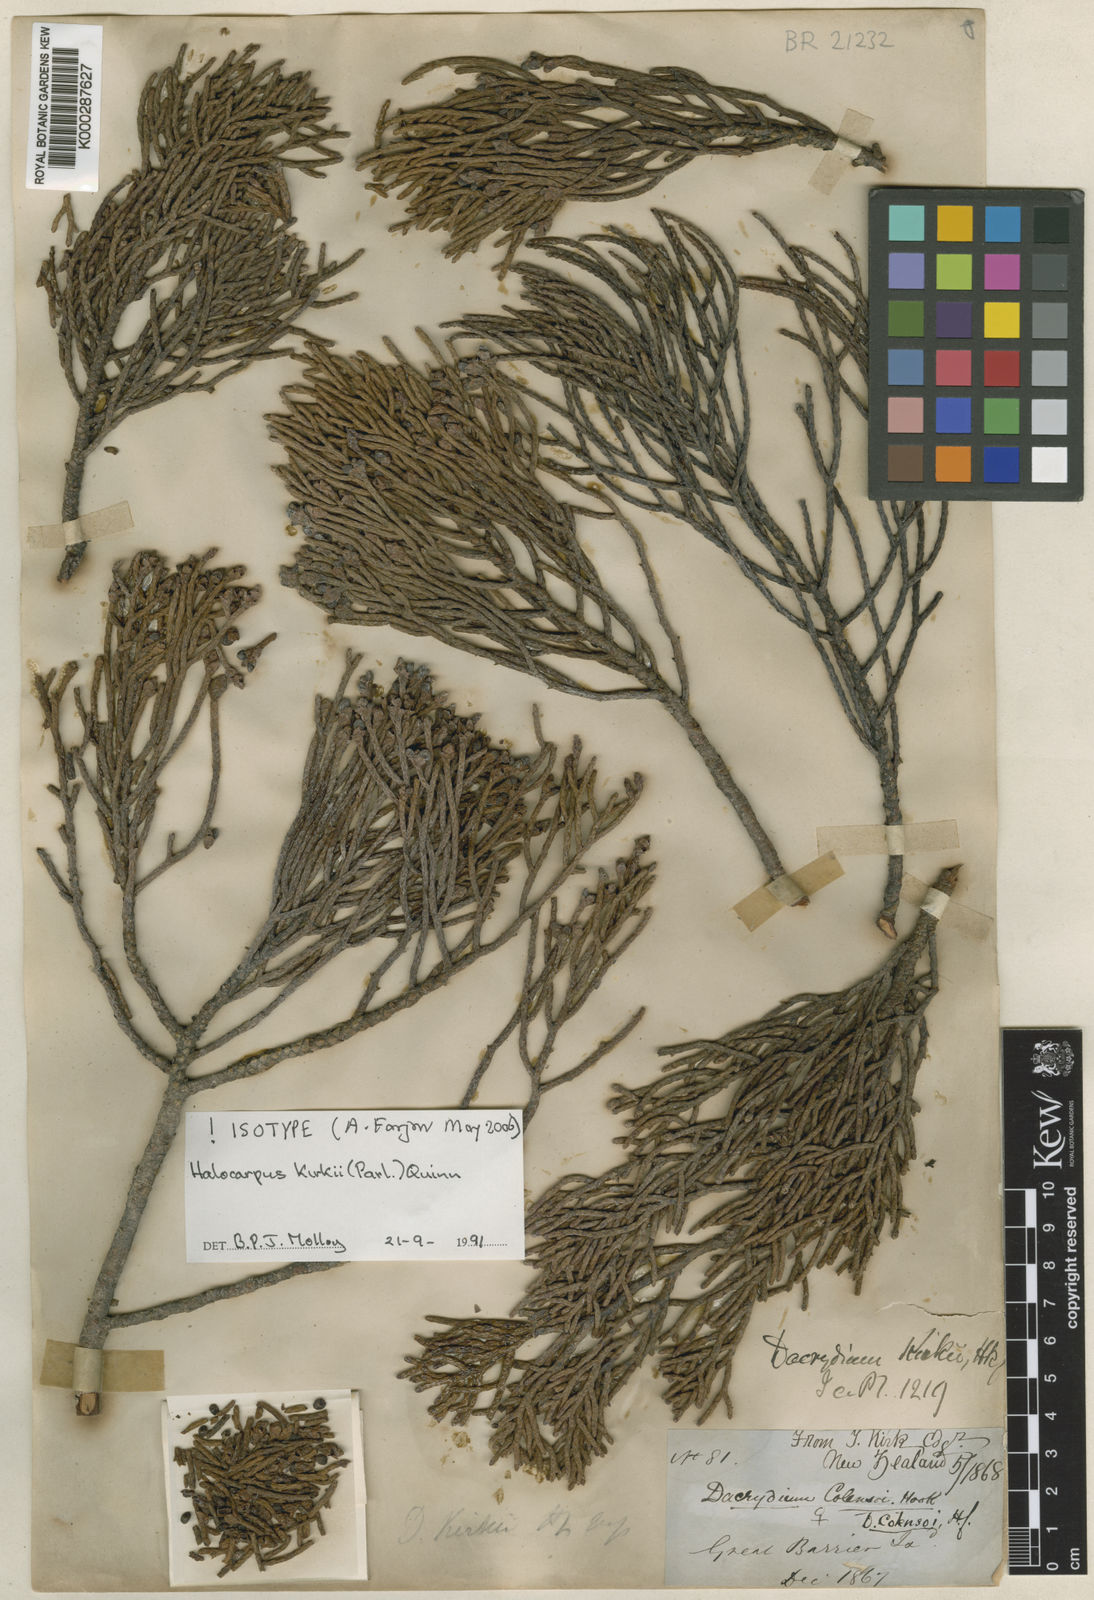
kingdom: Plantae
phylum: Tracheophyta
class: Pinopsida
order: Pinales
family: Podocarpaceae
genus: Halocarpus
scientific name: Halocarpus kirkii
